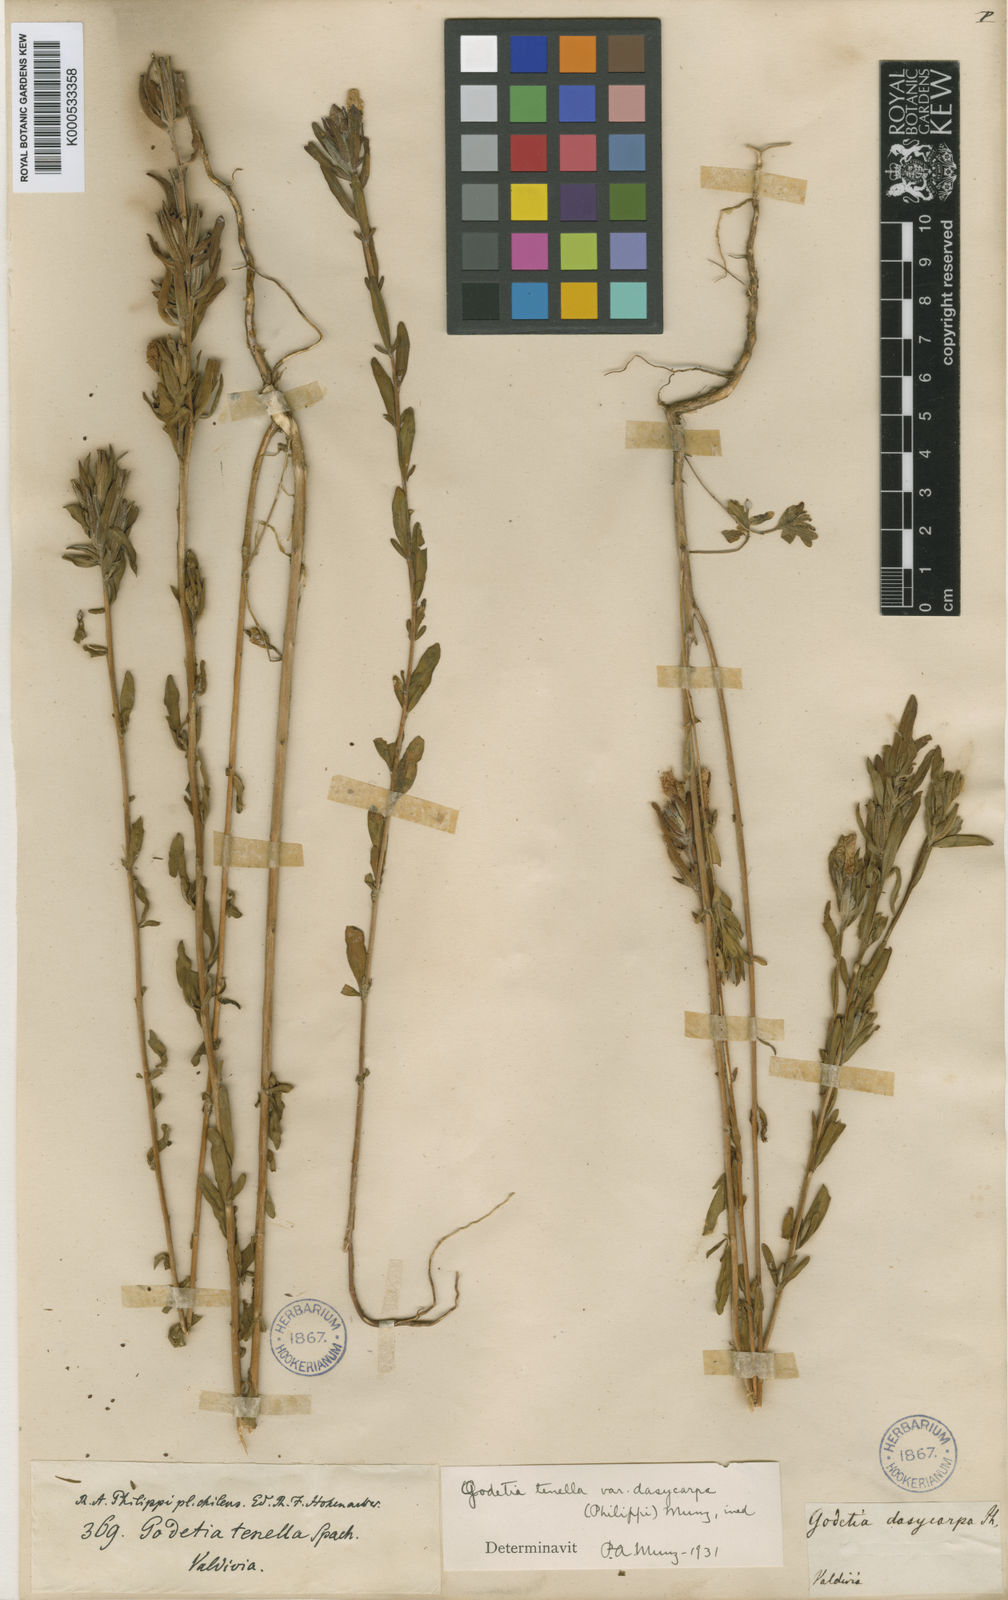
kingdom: Plantae
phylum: Tracheophyta
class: Magnoliopsida
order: Myrtales
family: Onagraceae
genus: Clarkia
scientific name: Clarkia
